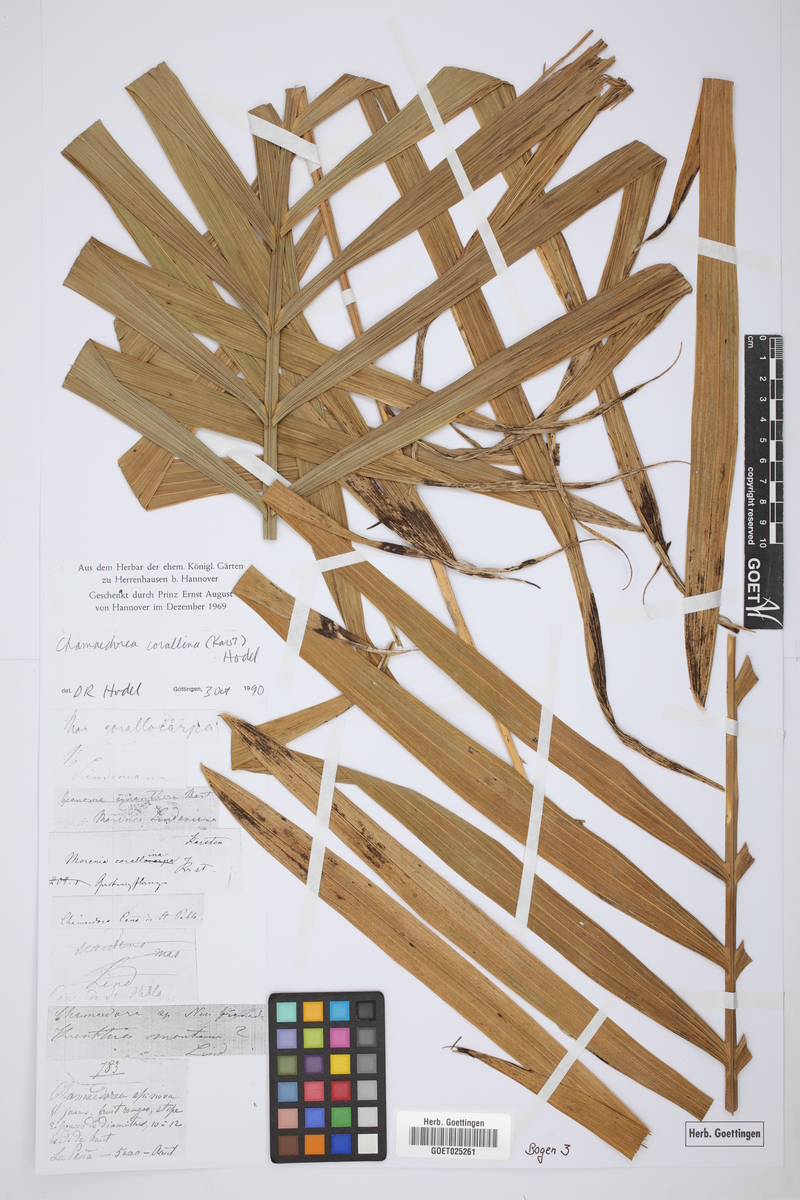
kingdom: Plantae
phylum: Tracheophyta
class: Liliopsida
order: Arecales
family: Arecaceae
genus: Chamaedorea
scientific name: Chamaedorea linearis
